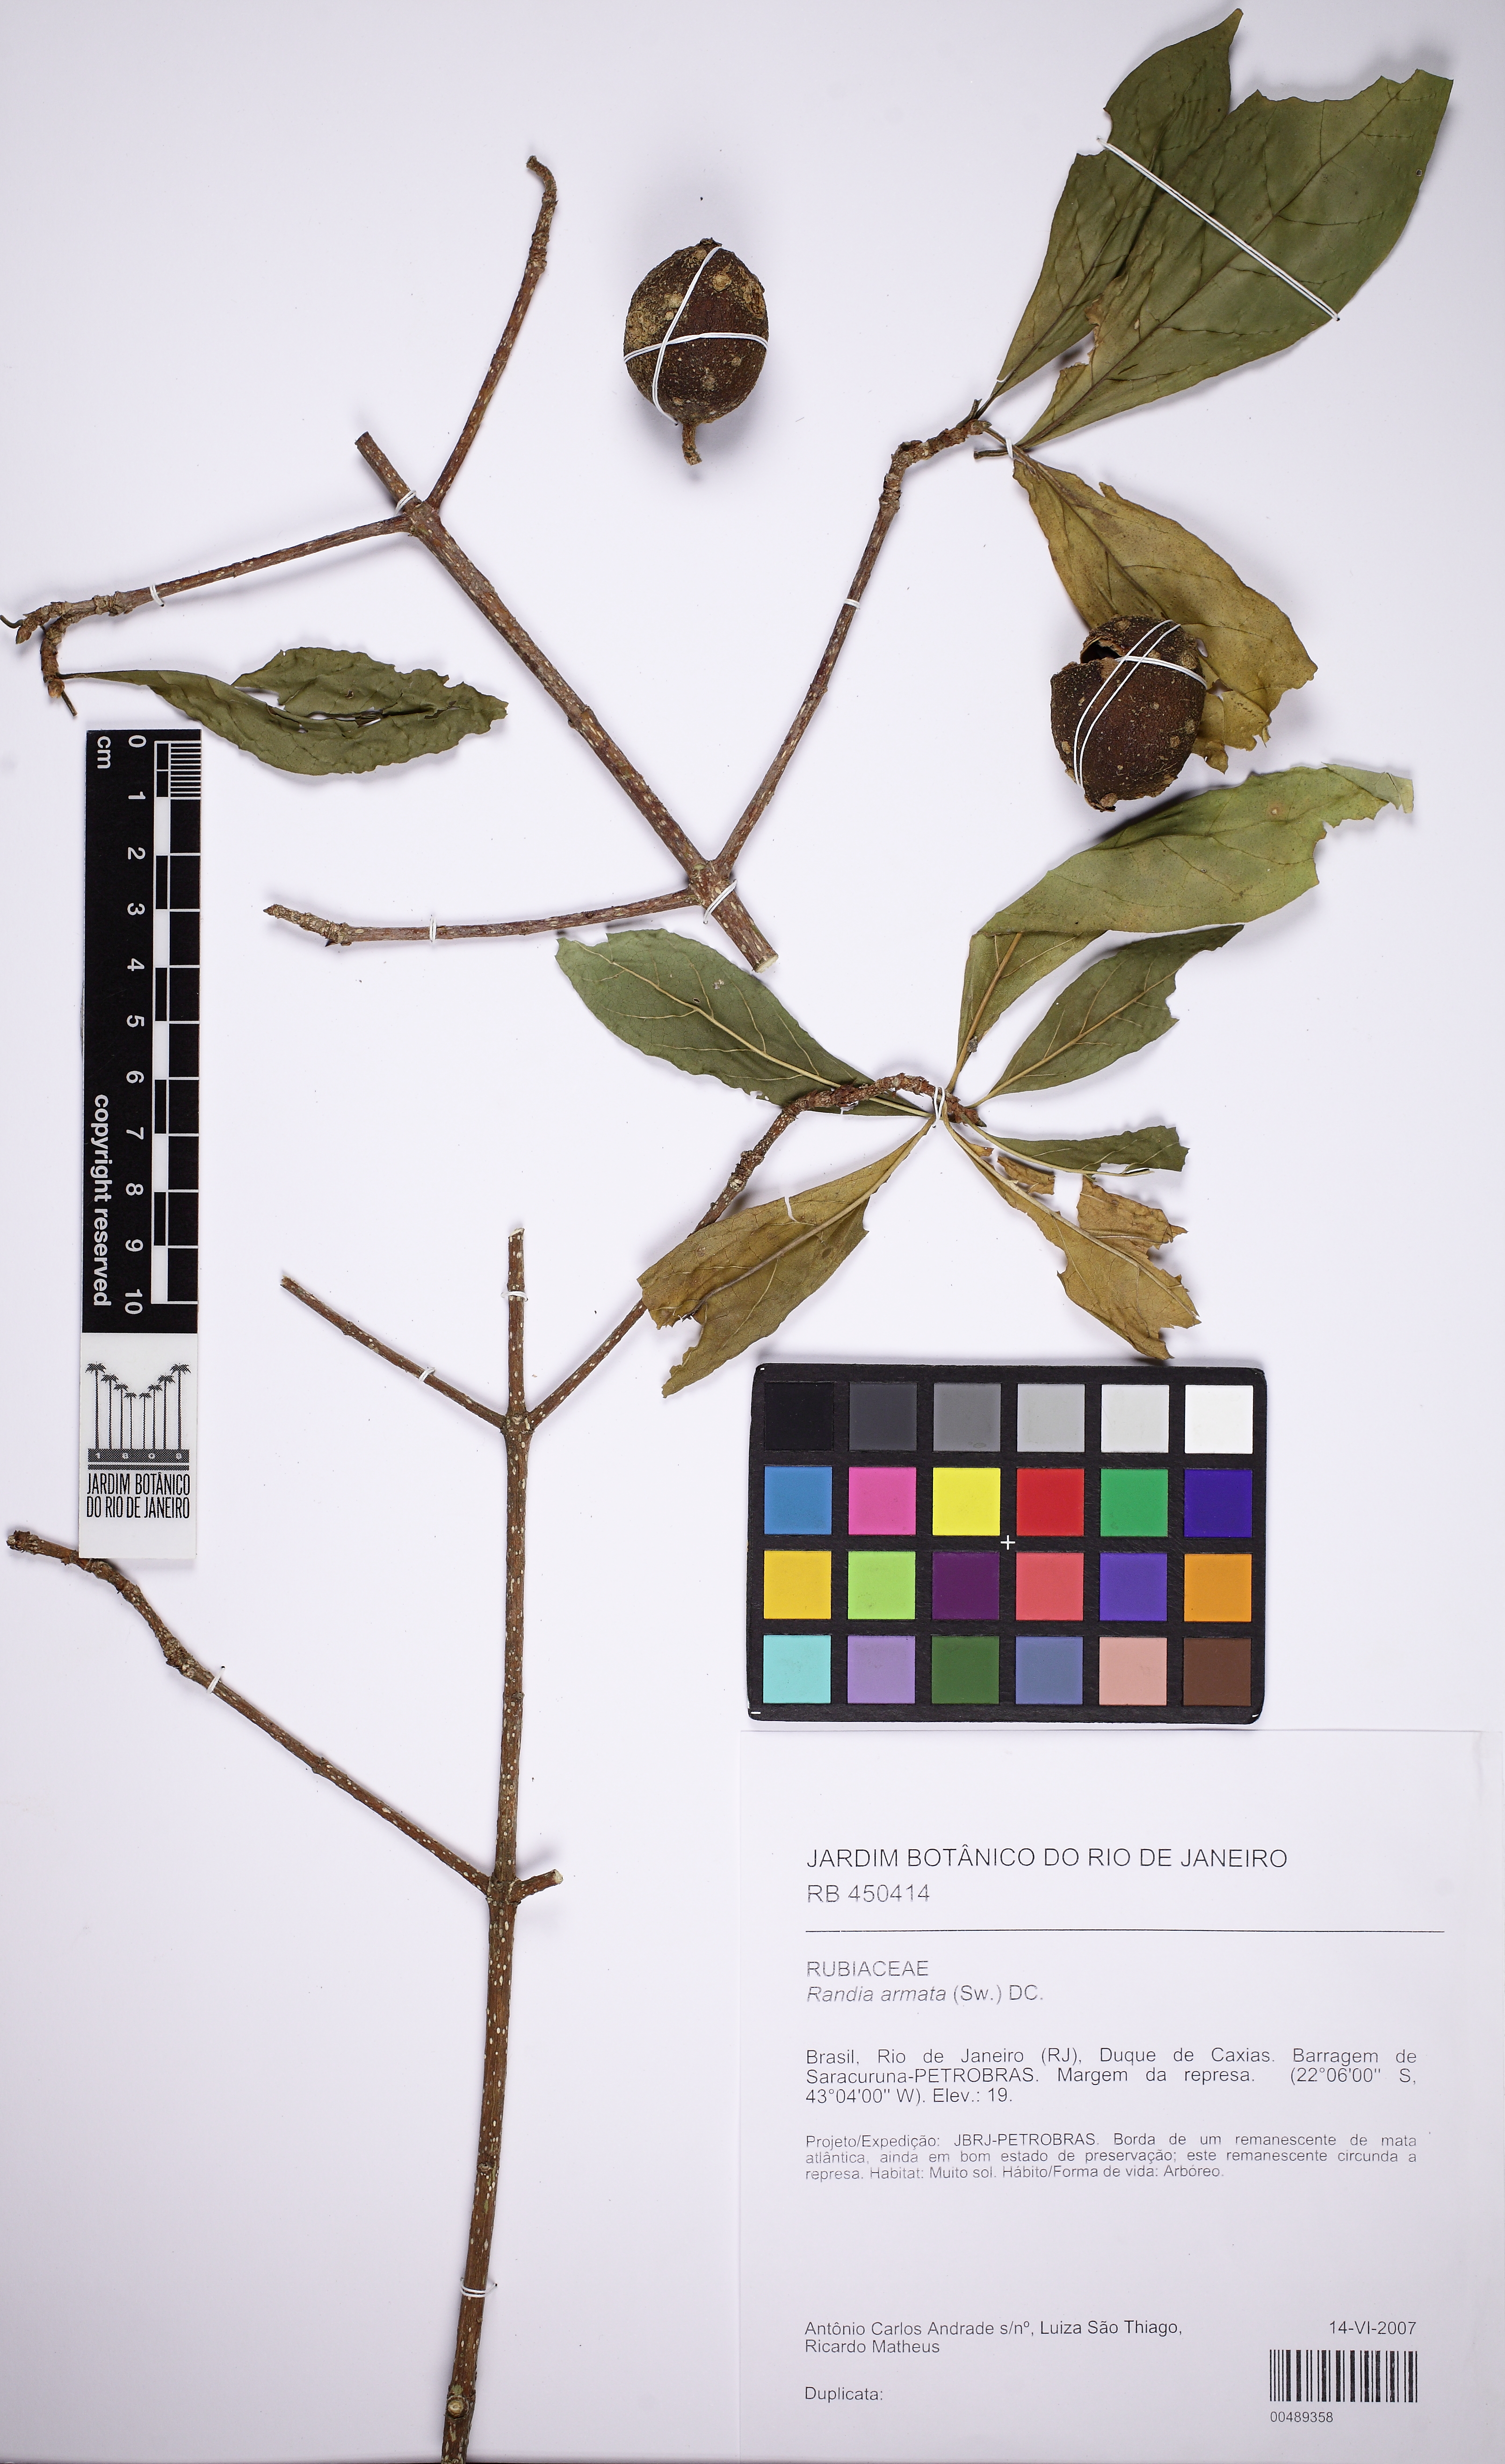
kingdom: Plantae
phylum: Tracheophyta
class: Magnoliopsida
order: Gentianales
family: Rubiaceae
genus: Randia
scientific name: Randia ferox
